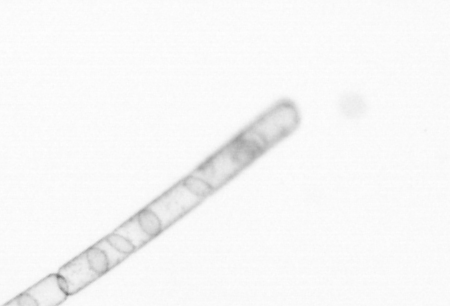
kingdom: Chromista
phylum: Ochrophyta
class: Bacillariophyceae
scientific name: Bacillariophyceae
